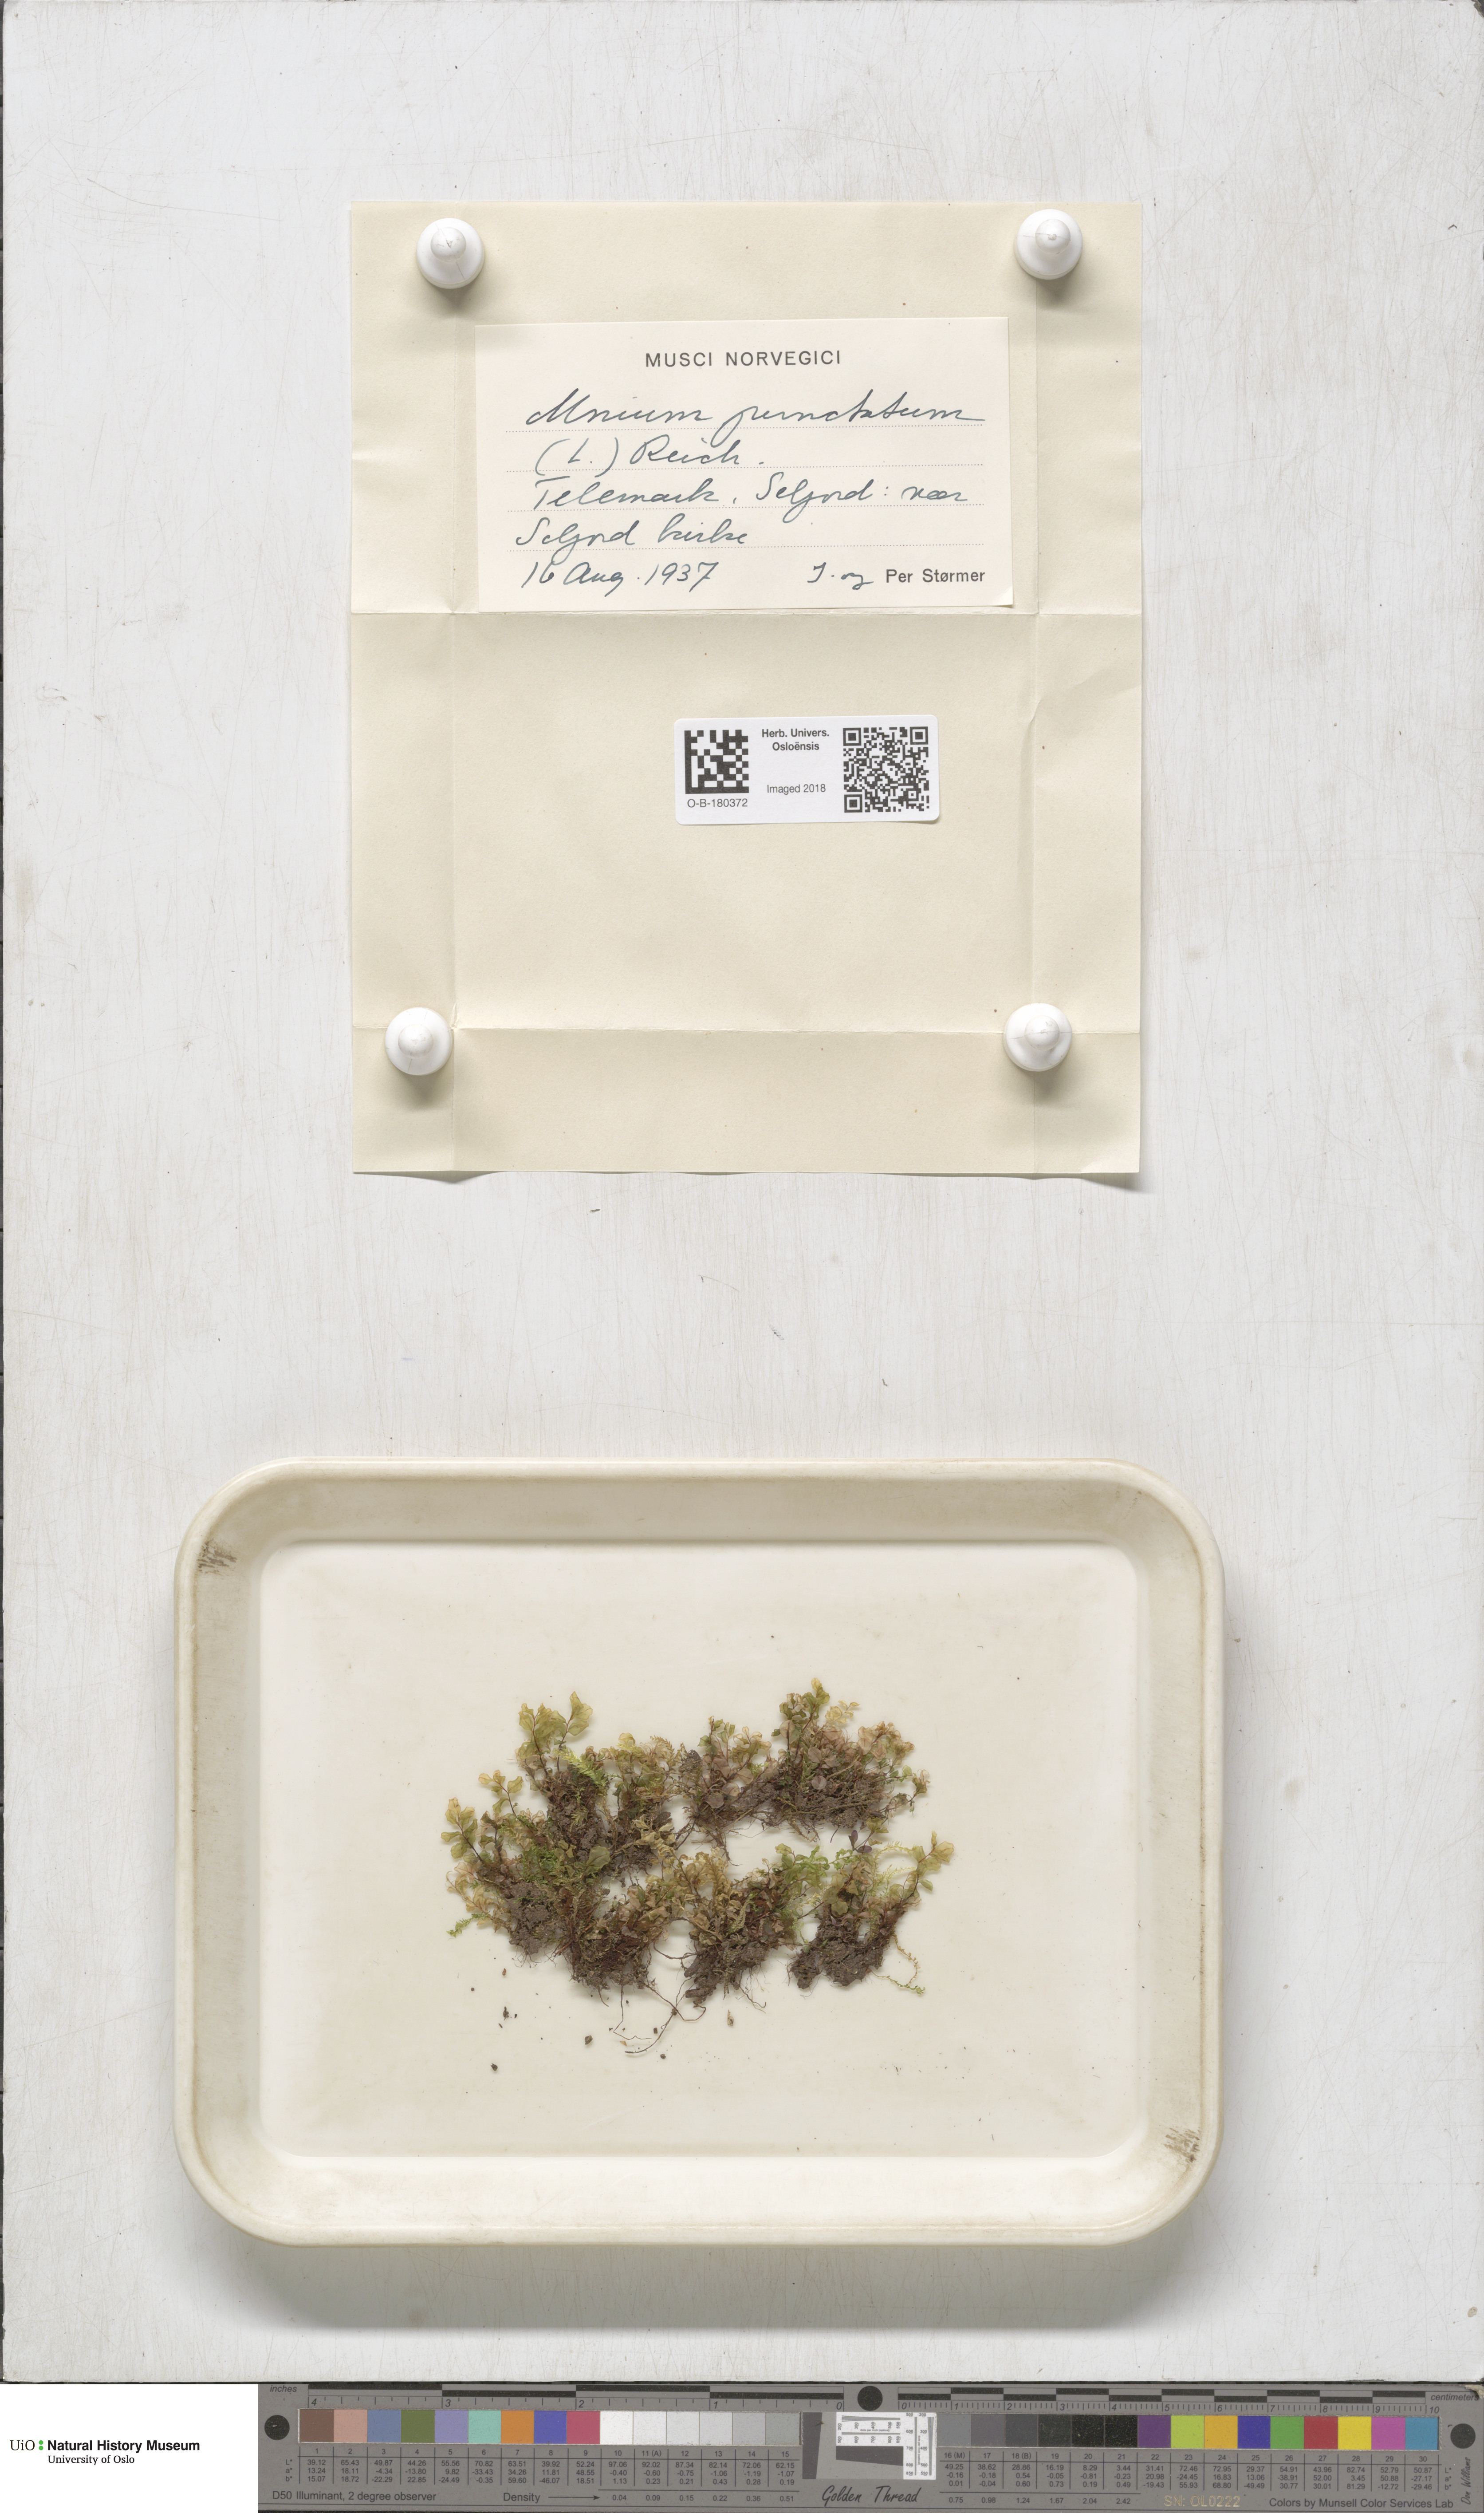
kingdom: Plantae
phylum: Bryophyta
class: Bryopsida
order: Bryales
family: Mniaceae
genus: Rhizomnium
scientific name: Rhizomnium punctatum
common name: Dotted leafy moss
